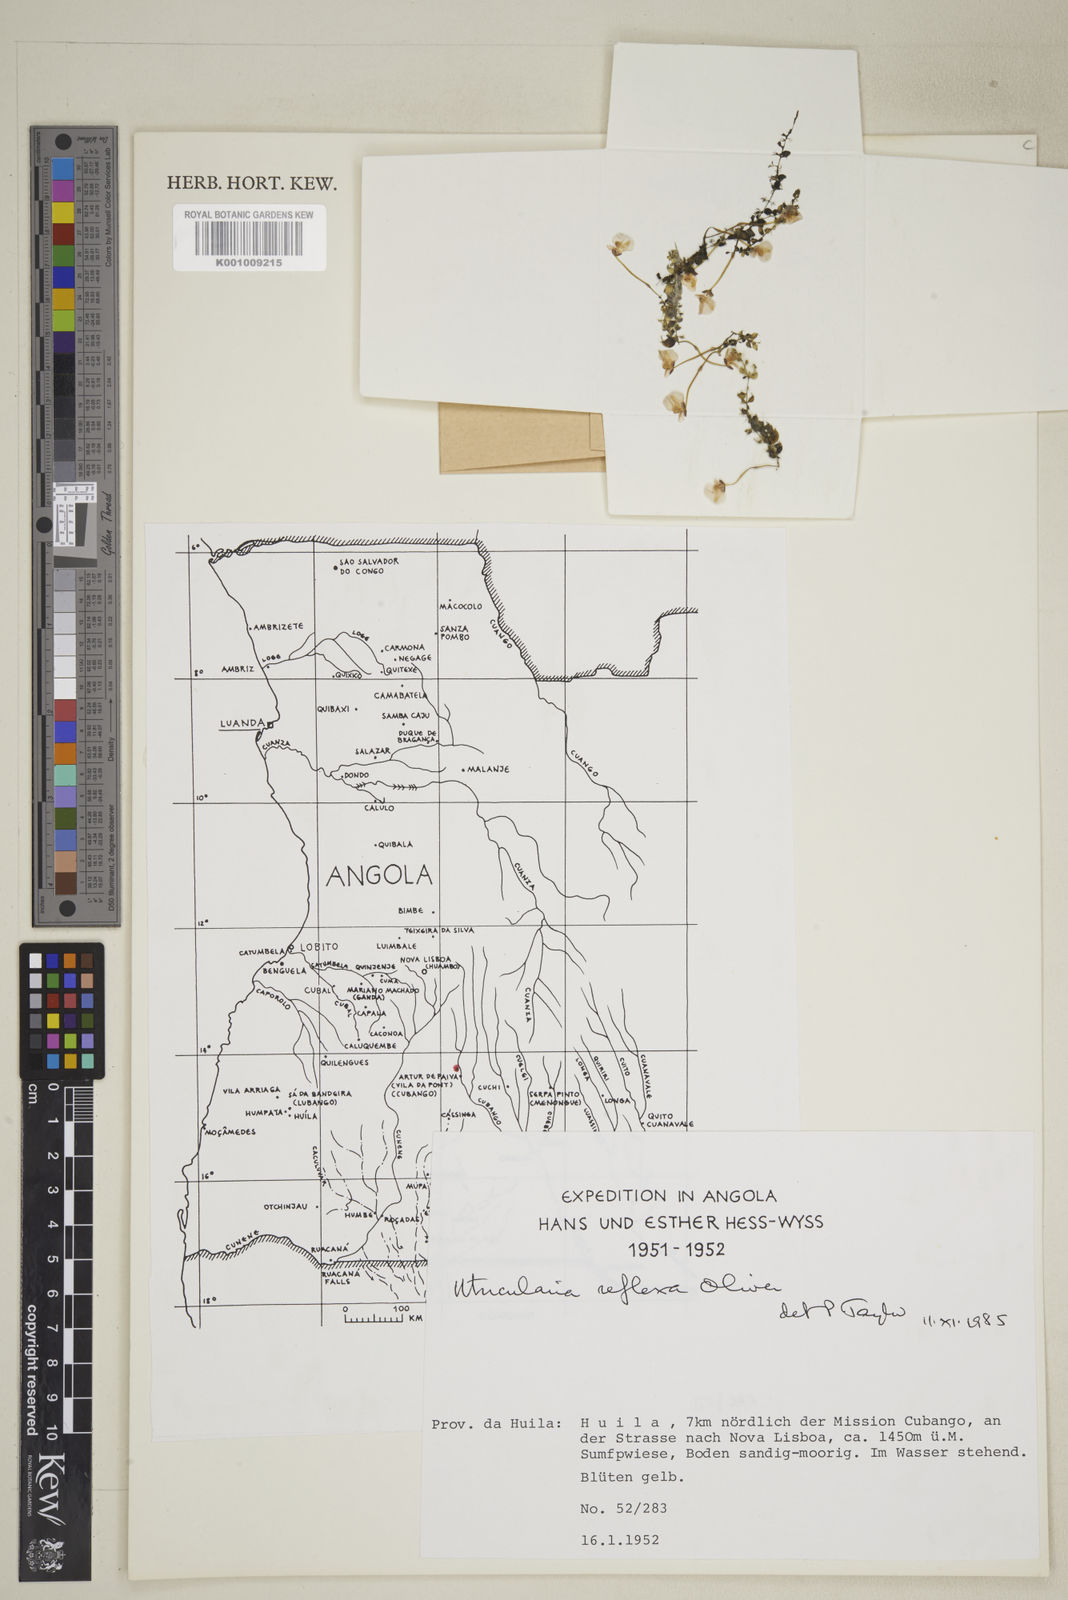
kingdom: Plantae
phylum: Tracheophyta
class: Magnoliopsida
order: Lamiales
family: Lentibulariaceae
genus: Utricularia
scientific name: Utricularia reflexa
